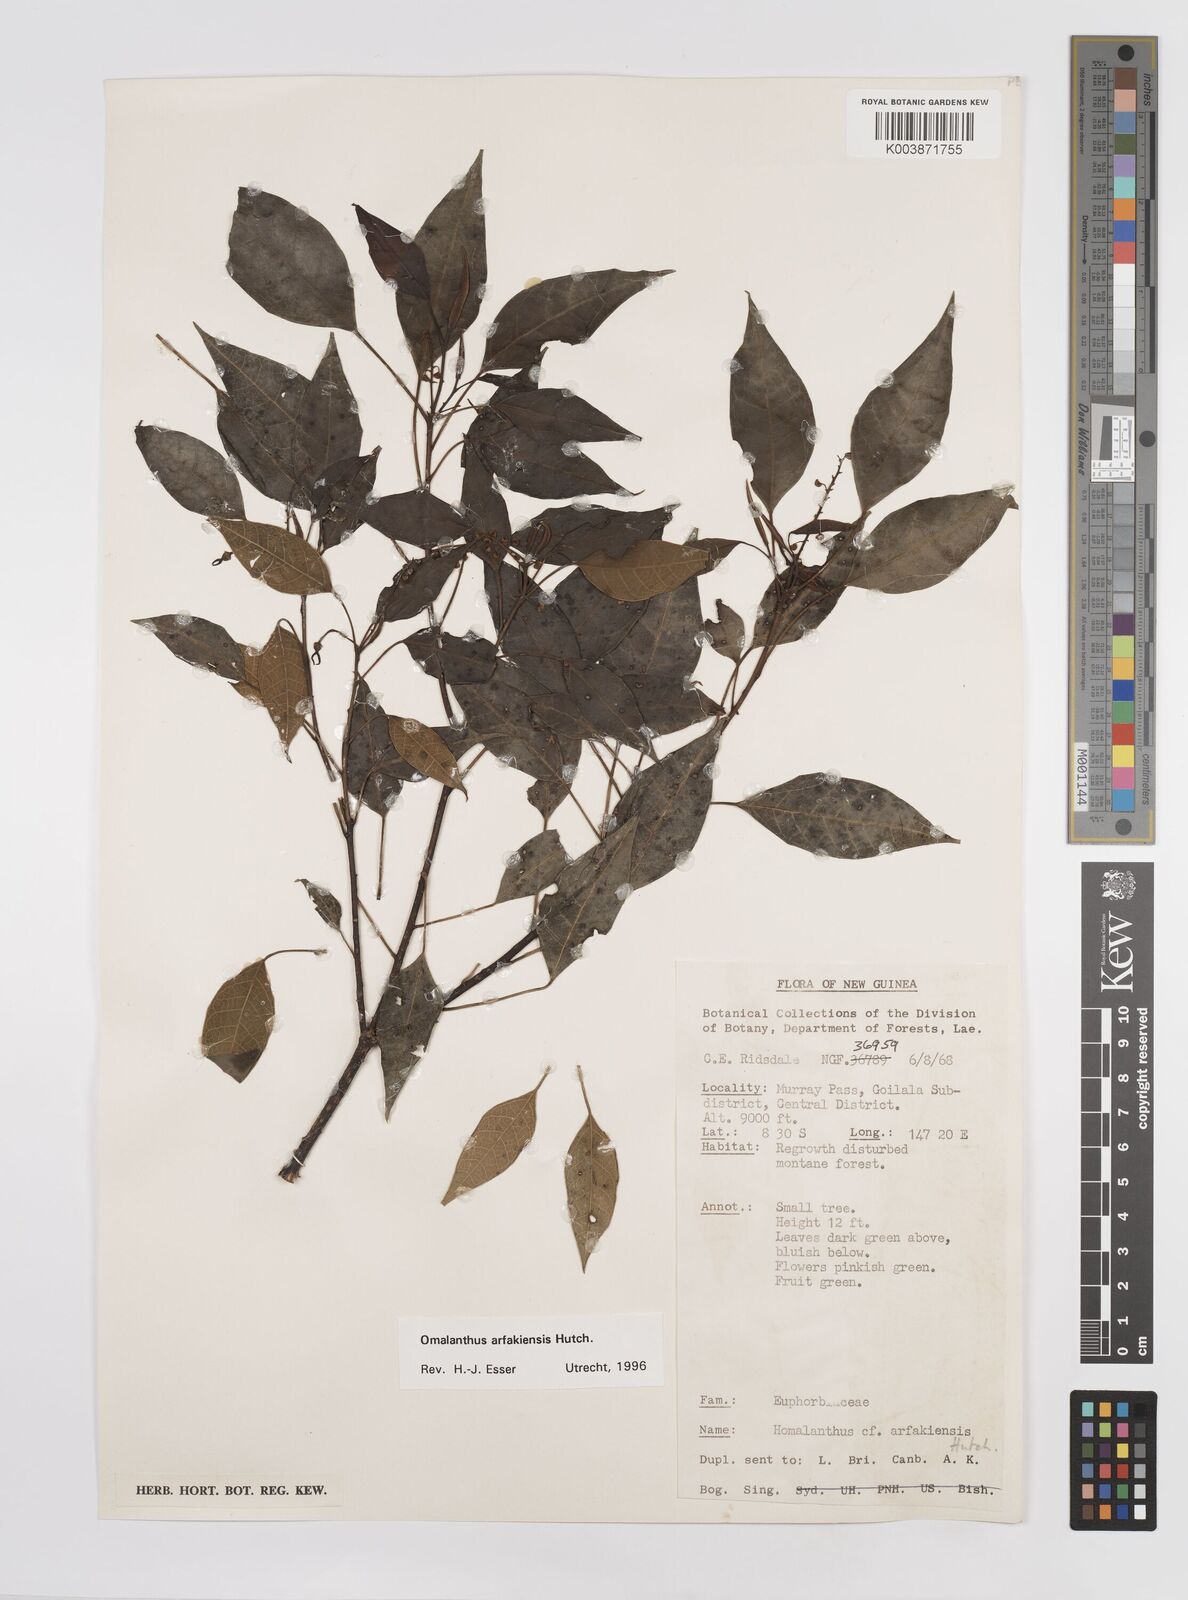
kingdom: Plantae
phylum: Tracheophyta
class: Magnoliopsida
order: Malpighiales
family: Euphorbiaceae
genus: Homalanthus
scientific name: Homalanthus arfakiensis
